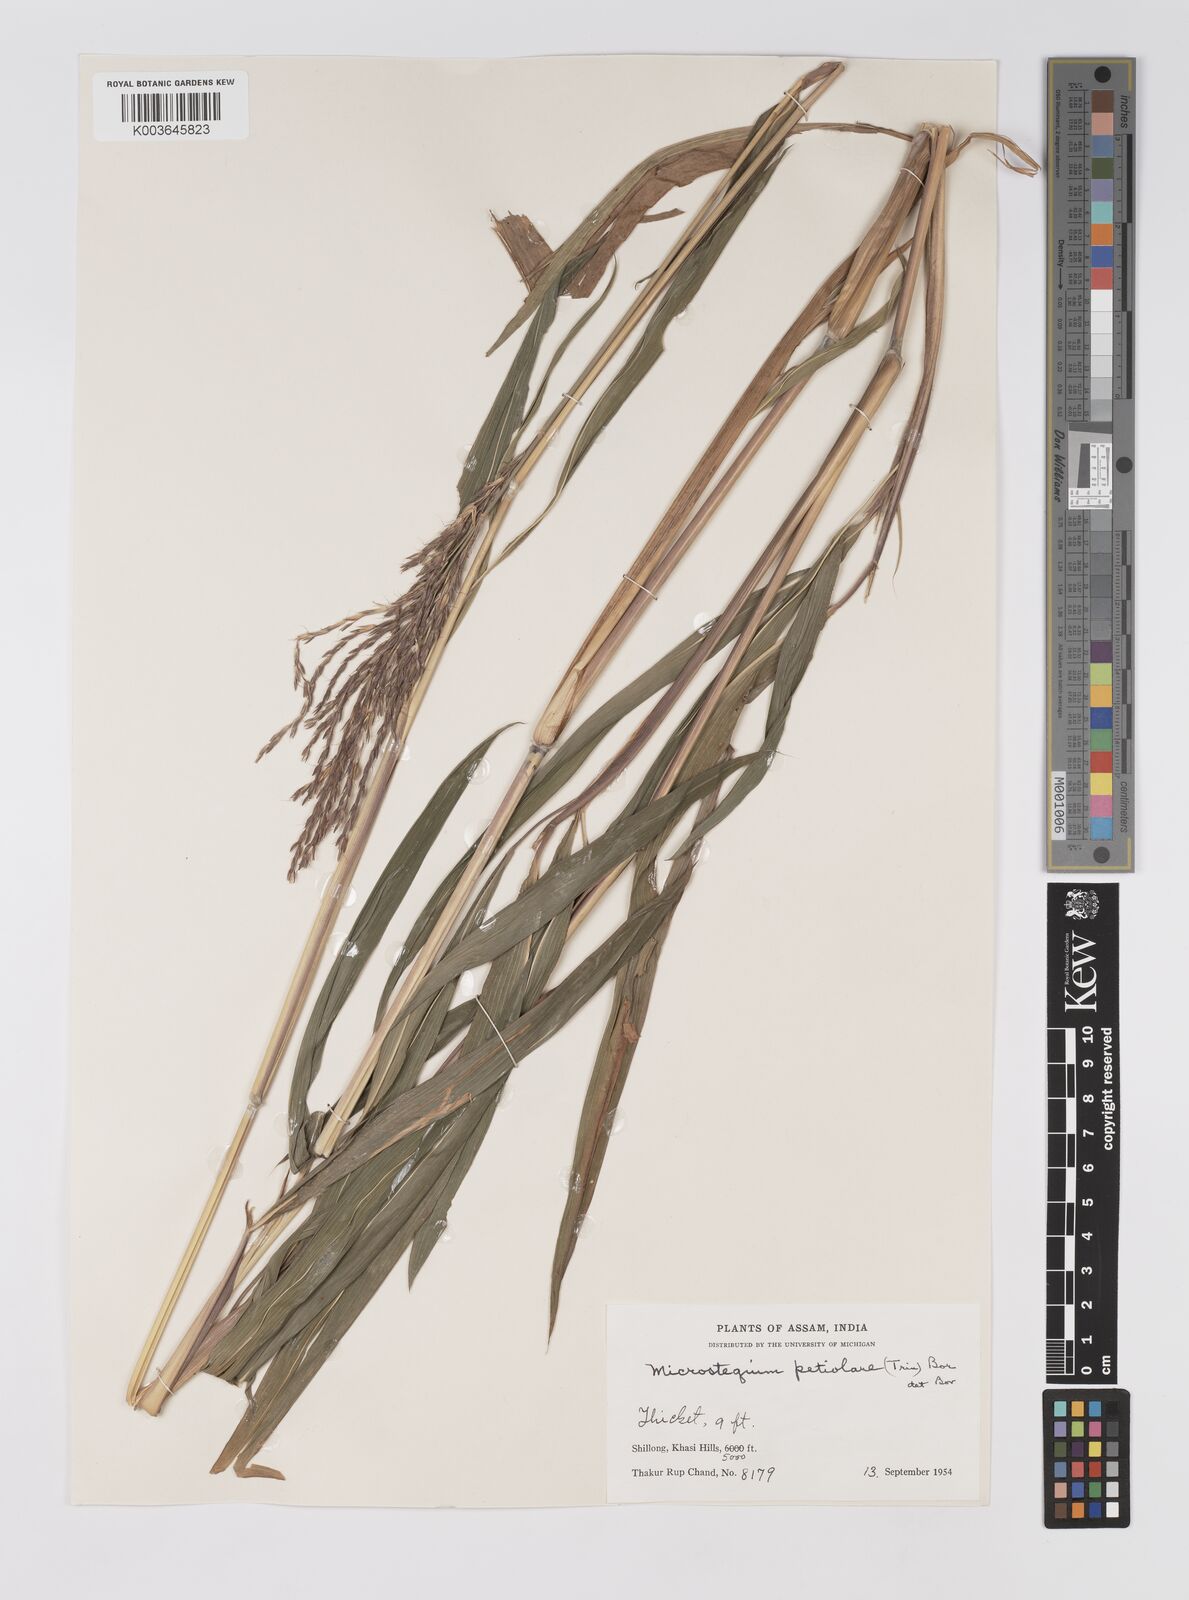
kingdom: Plantae
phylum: Tracheophyta
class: Liliopsida
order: Poales
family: Poaceae
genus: Microstegium
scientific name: Microstegium petiolare
